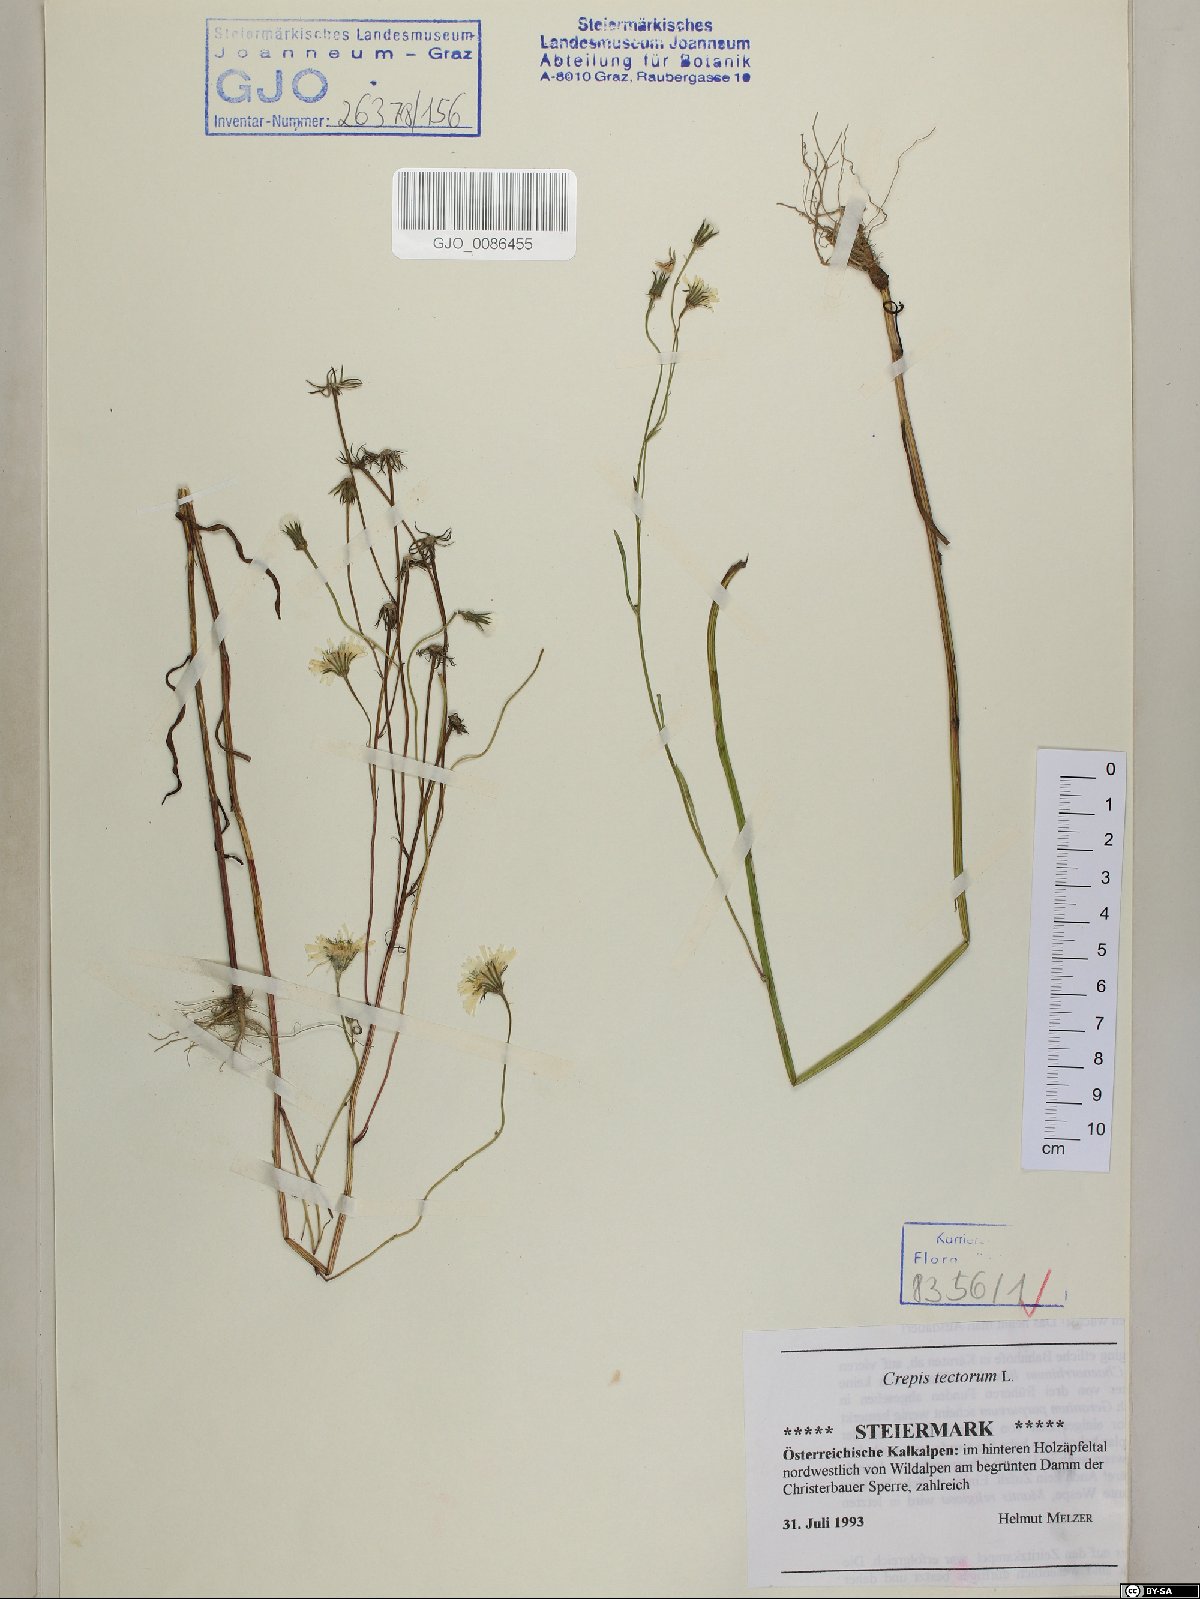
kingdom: Plantae
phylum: Tracheophyta
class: Magnoliopsida
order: Asterales
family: Asteraceae
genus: Crepis
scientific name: Crepis tectorum
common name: Narrow-leaved hawk's-beard
